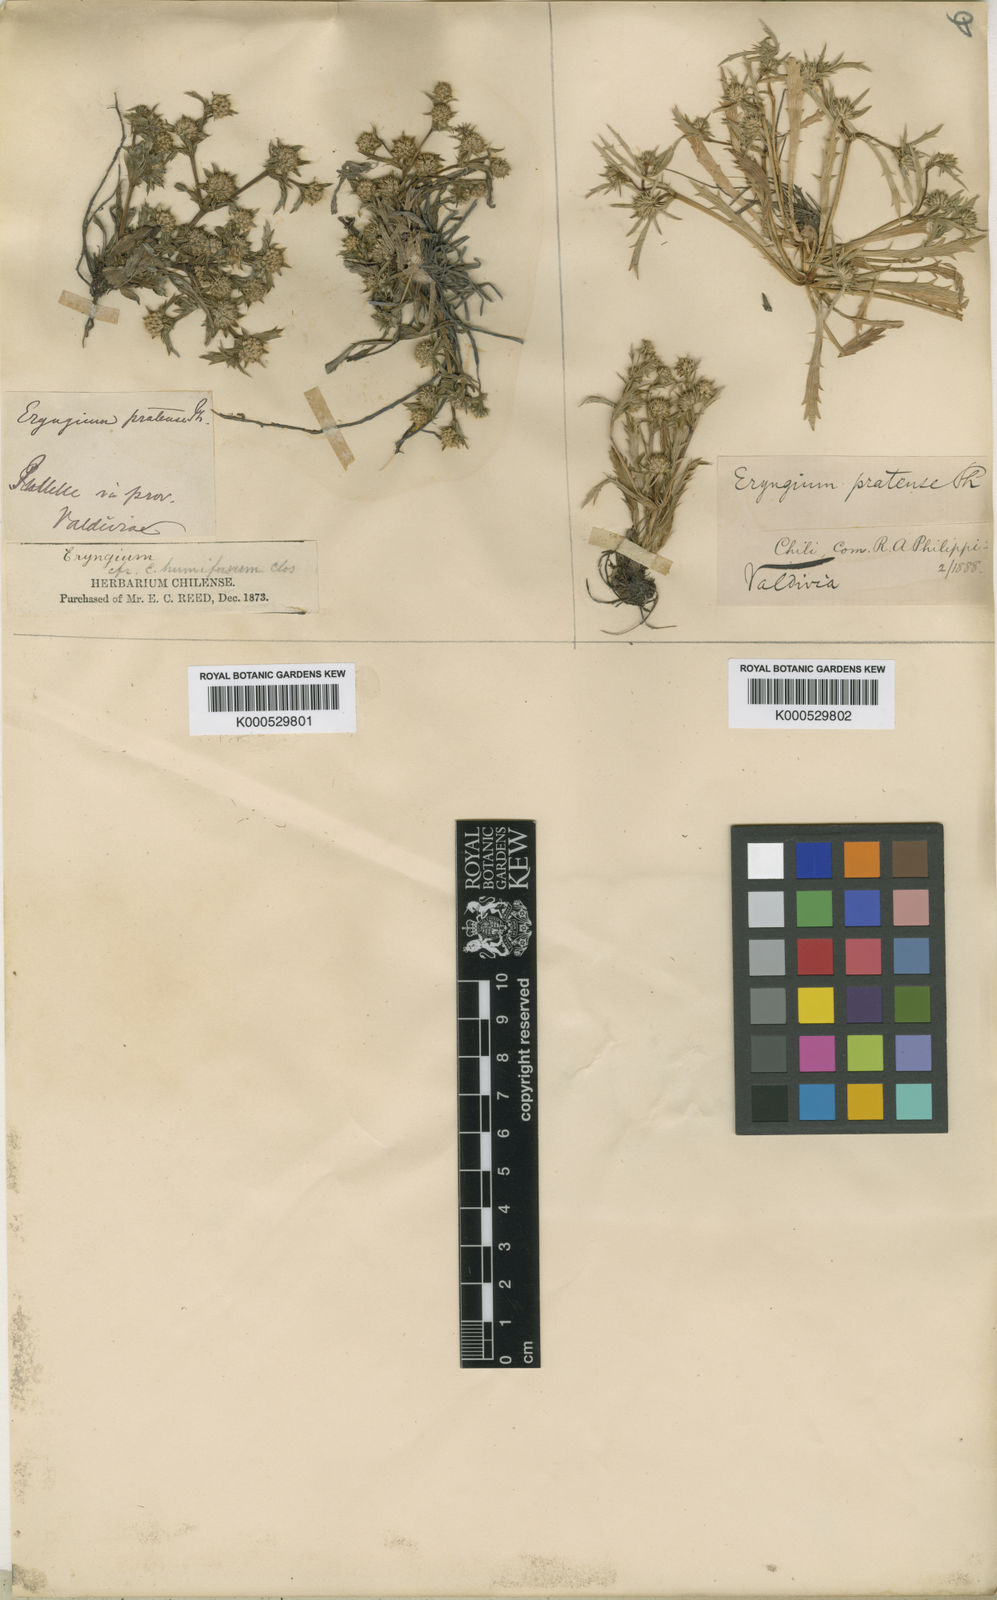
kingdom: Plantae
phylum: Tracheophyta
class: Magnoliopsida
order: Apiales
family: Apiaceae
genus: Eryngium
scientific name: Eryngium humifusum
